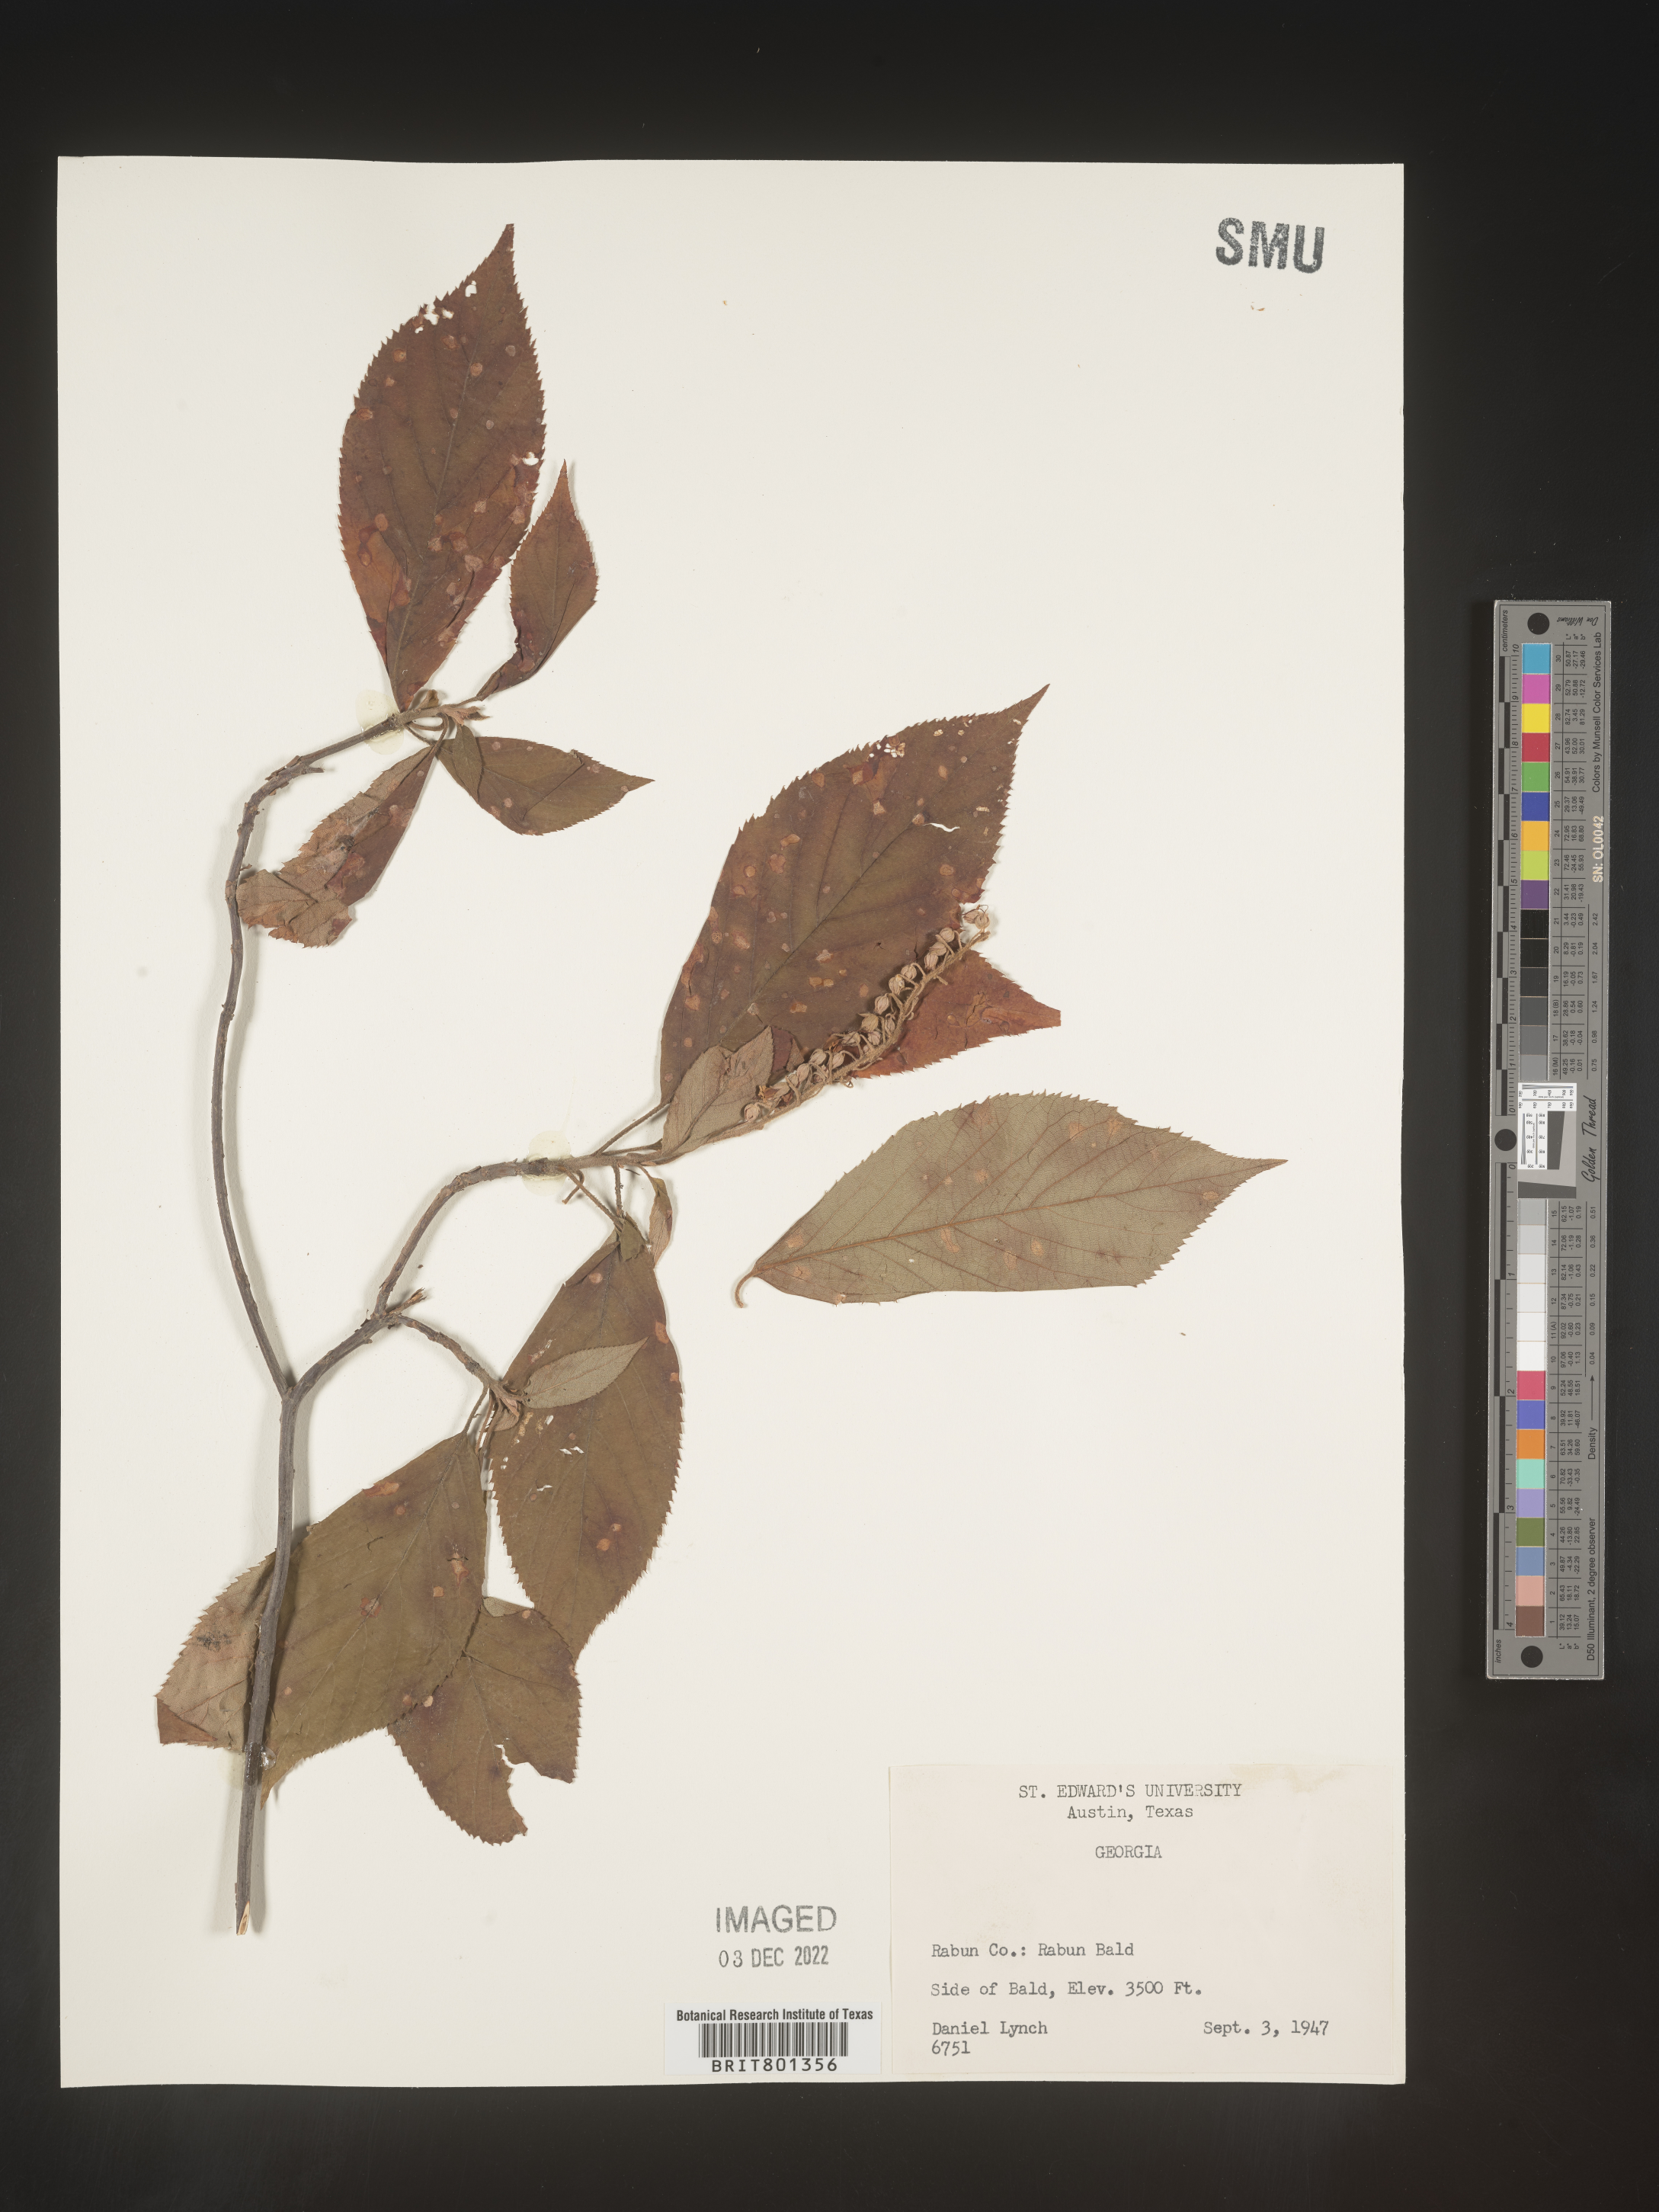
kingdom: Plantae
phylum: Tracheophyta
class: Magnoliopsida
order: Ericales
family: Clethraceae
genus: Clethra
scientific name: Clethra alnifolia
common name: Sweet pepperbush
